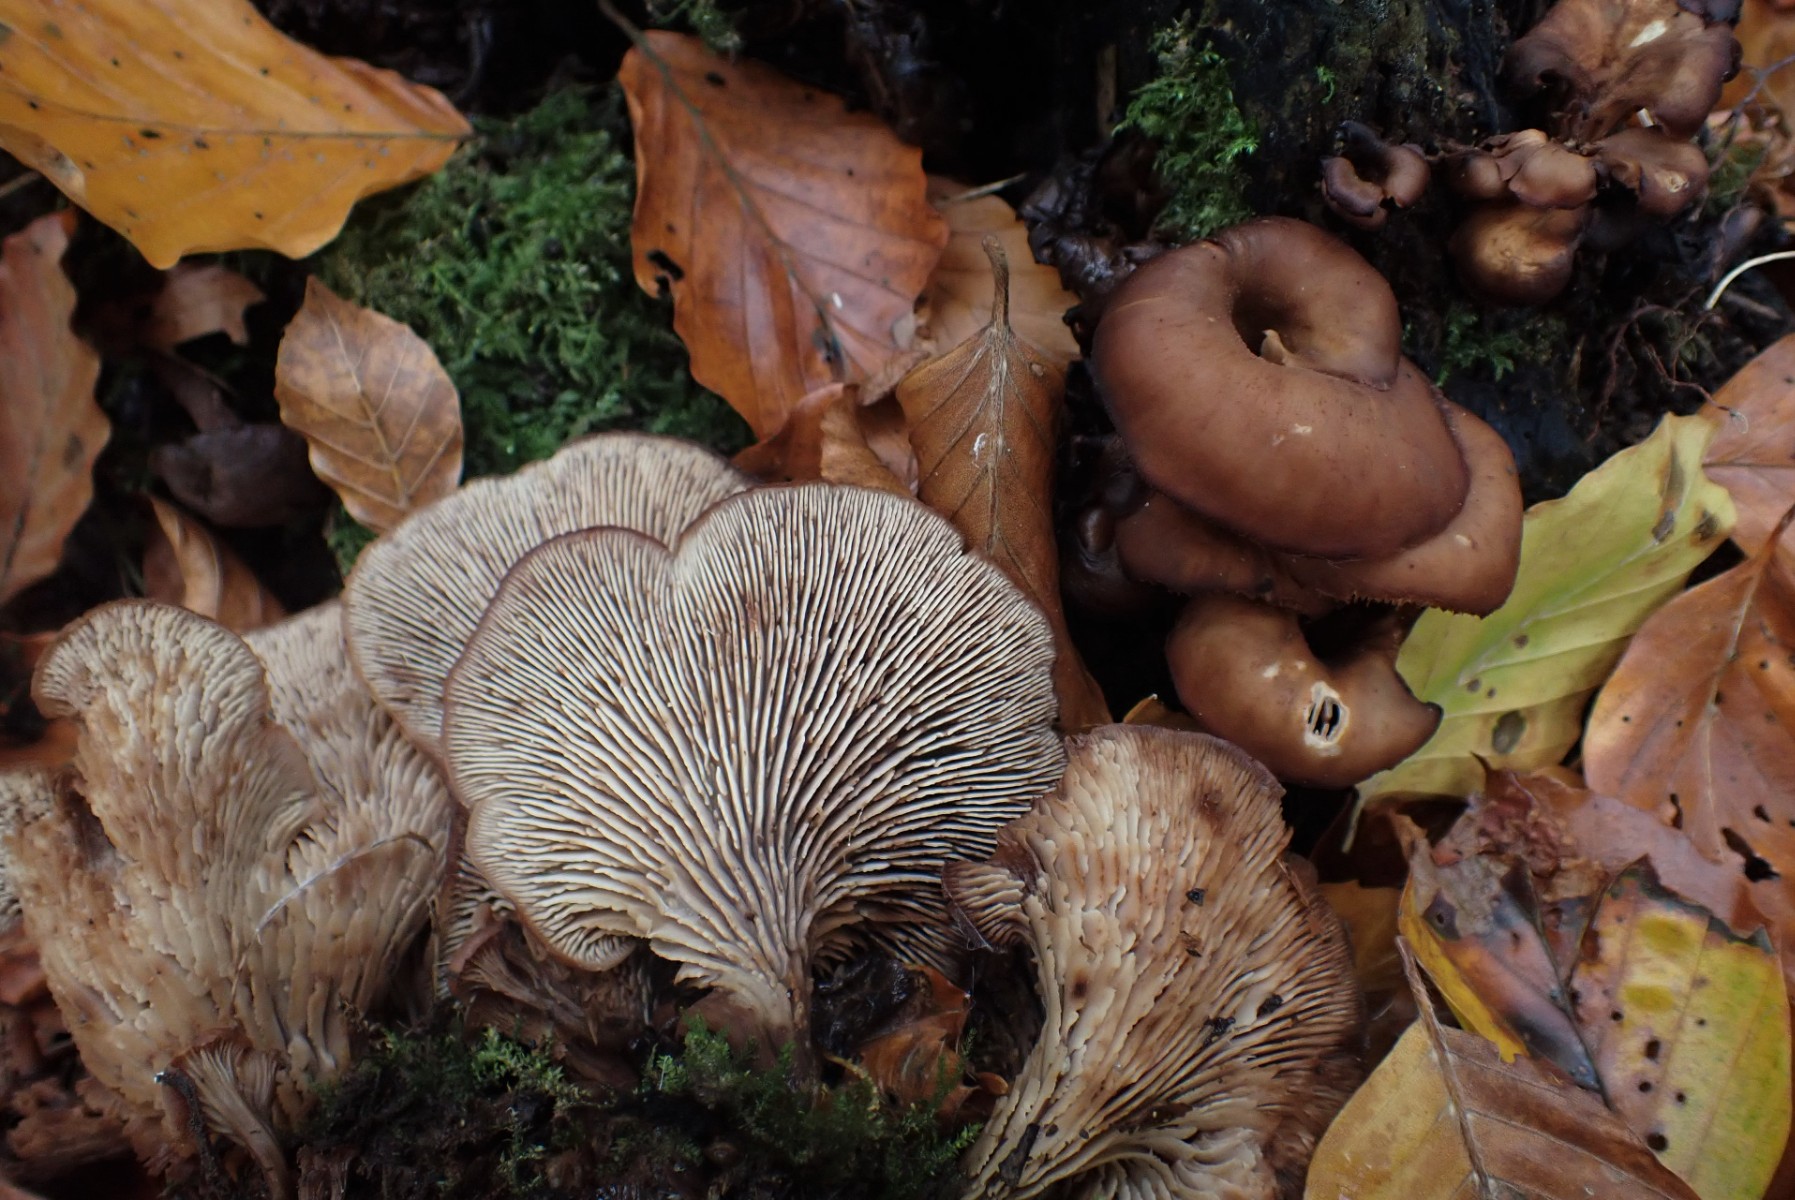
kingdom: Fungi
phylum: Basidiomycota
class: Agaricomycetes
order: Russulales
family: Auriscalpiaceae
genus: Lentinellus
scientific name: Lentinellus cochleatus
